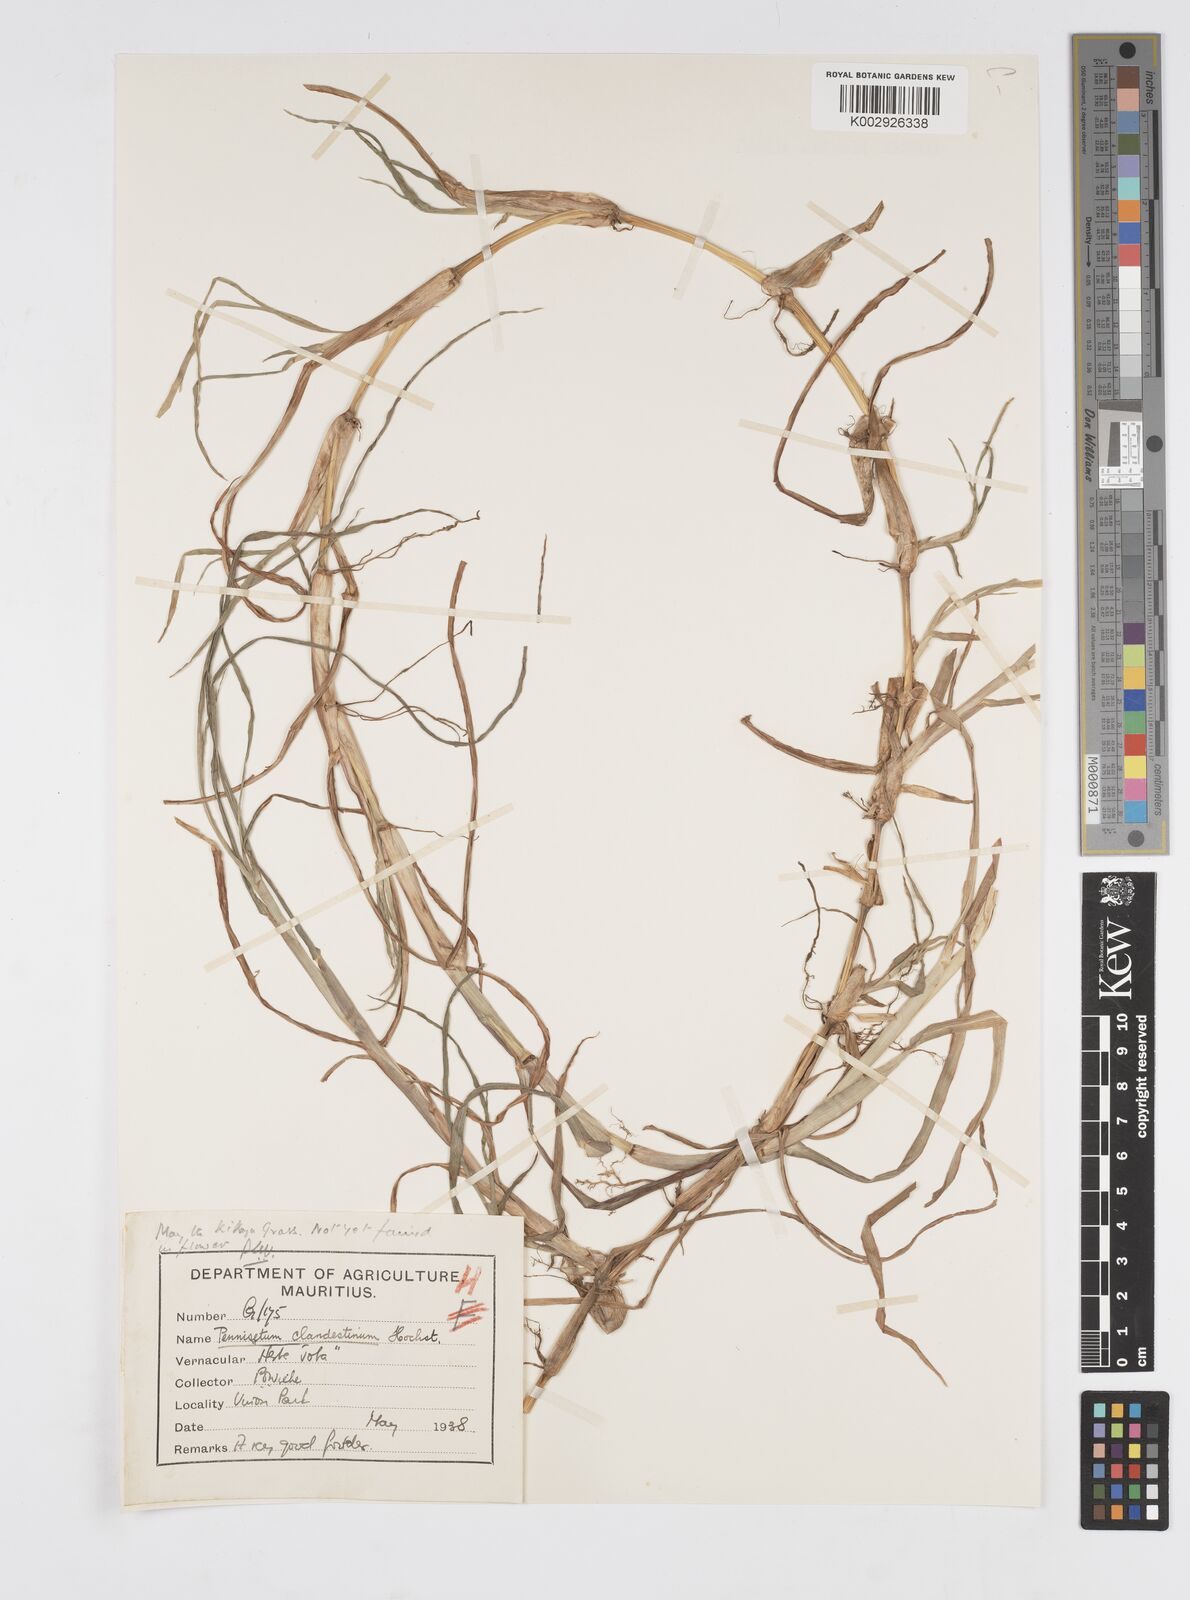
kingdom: Plantae
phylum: Tracheophyta
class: Liliopsida
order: Poales
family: Poaceae
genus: Cenchrus
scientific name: Cenchrus clandestinus
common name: Kikuyugrass
